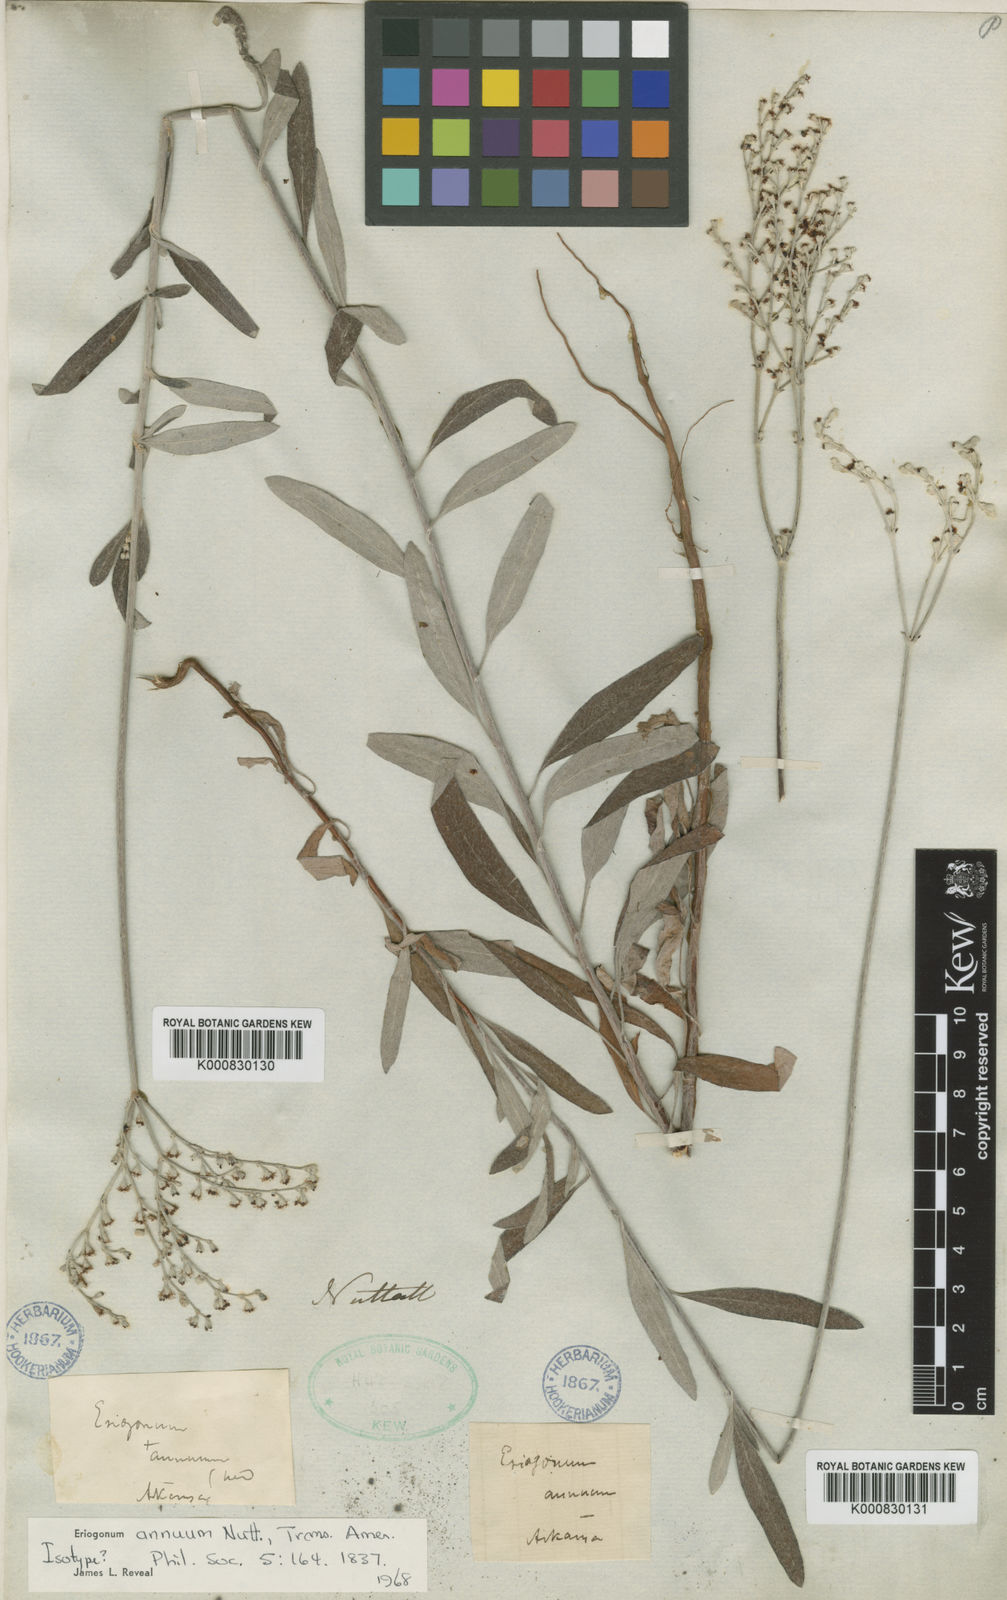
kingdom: Plantae
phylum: Tracheophyta
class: Magnoliopsida
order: Caryophyllales
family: Polygonaceae
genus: Eriogonum
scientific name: Eriogonum annuum
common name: Annual wild buckwheat
